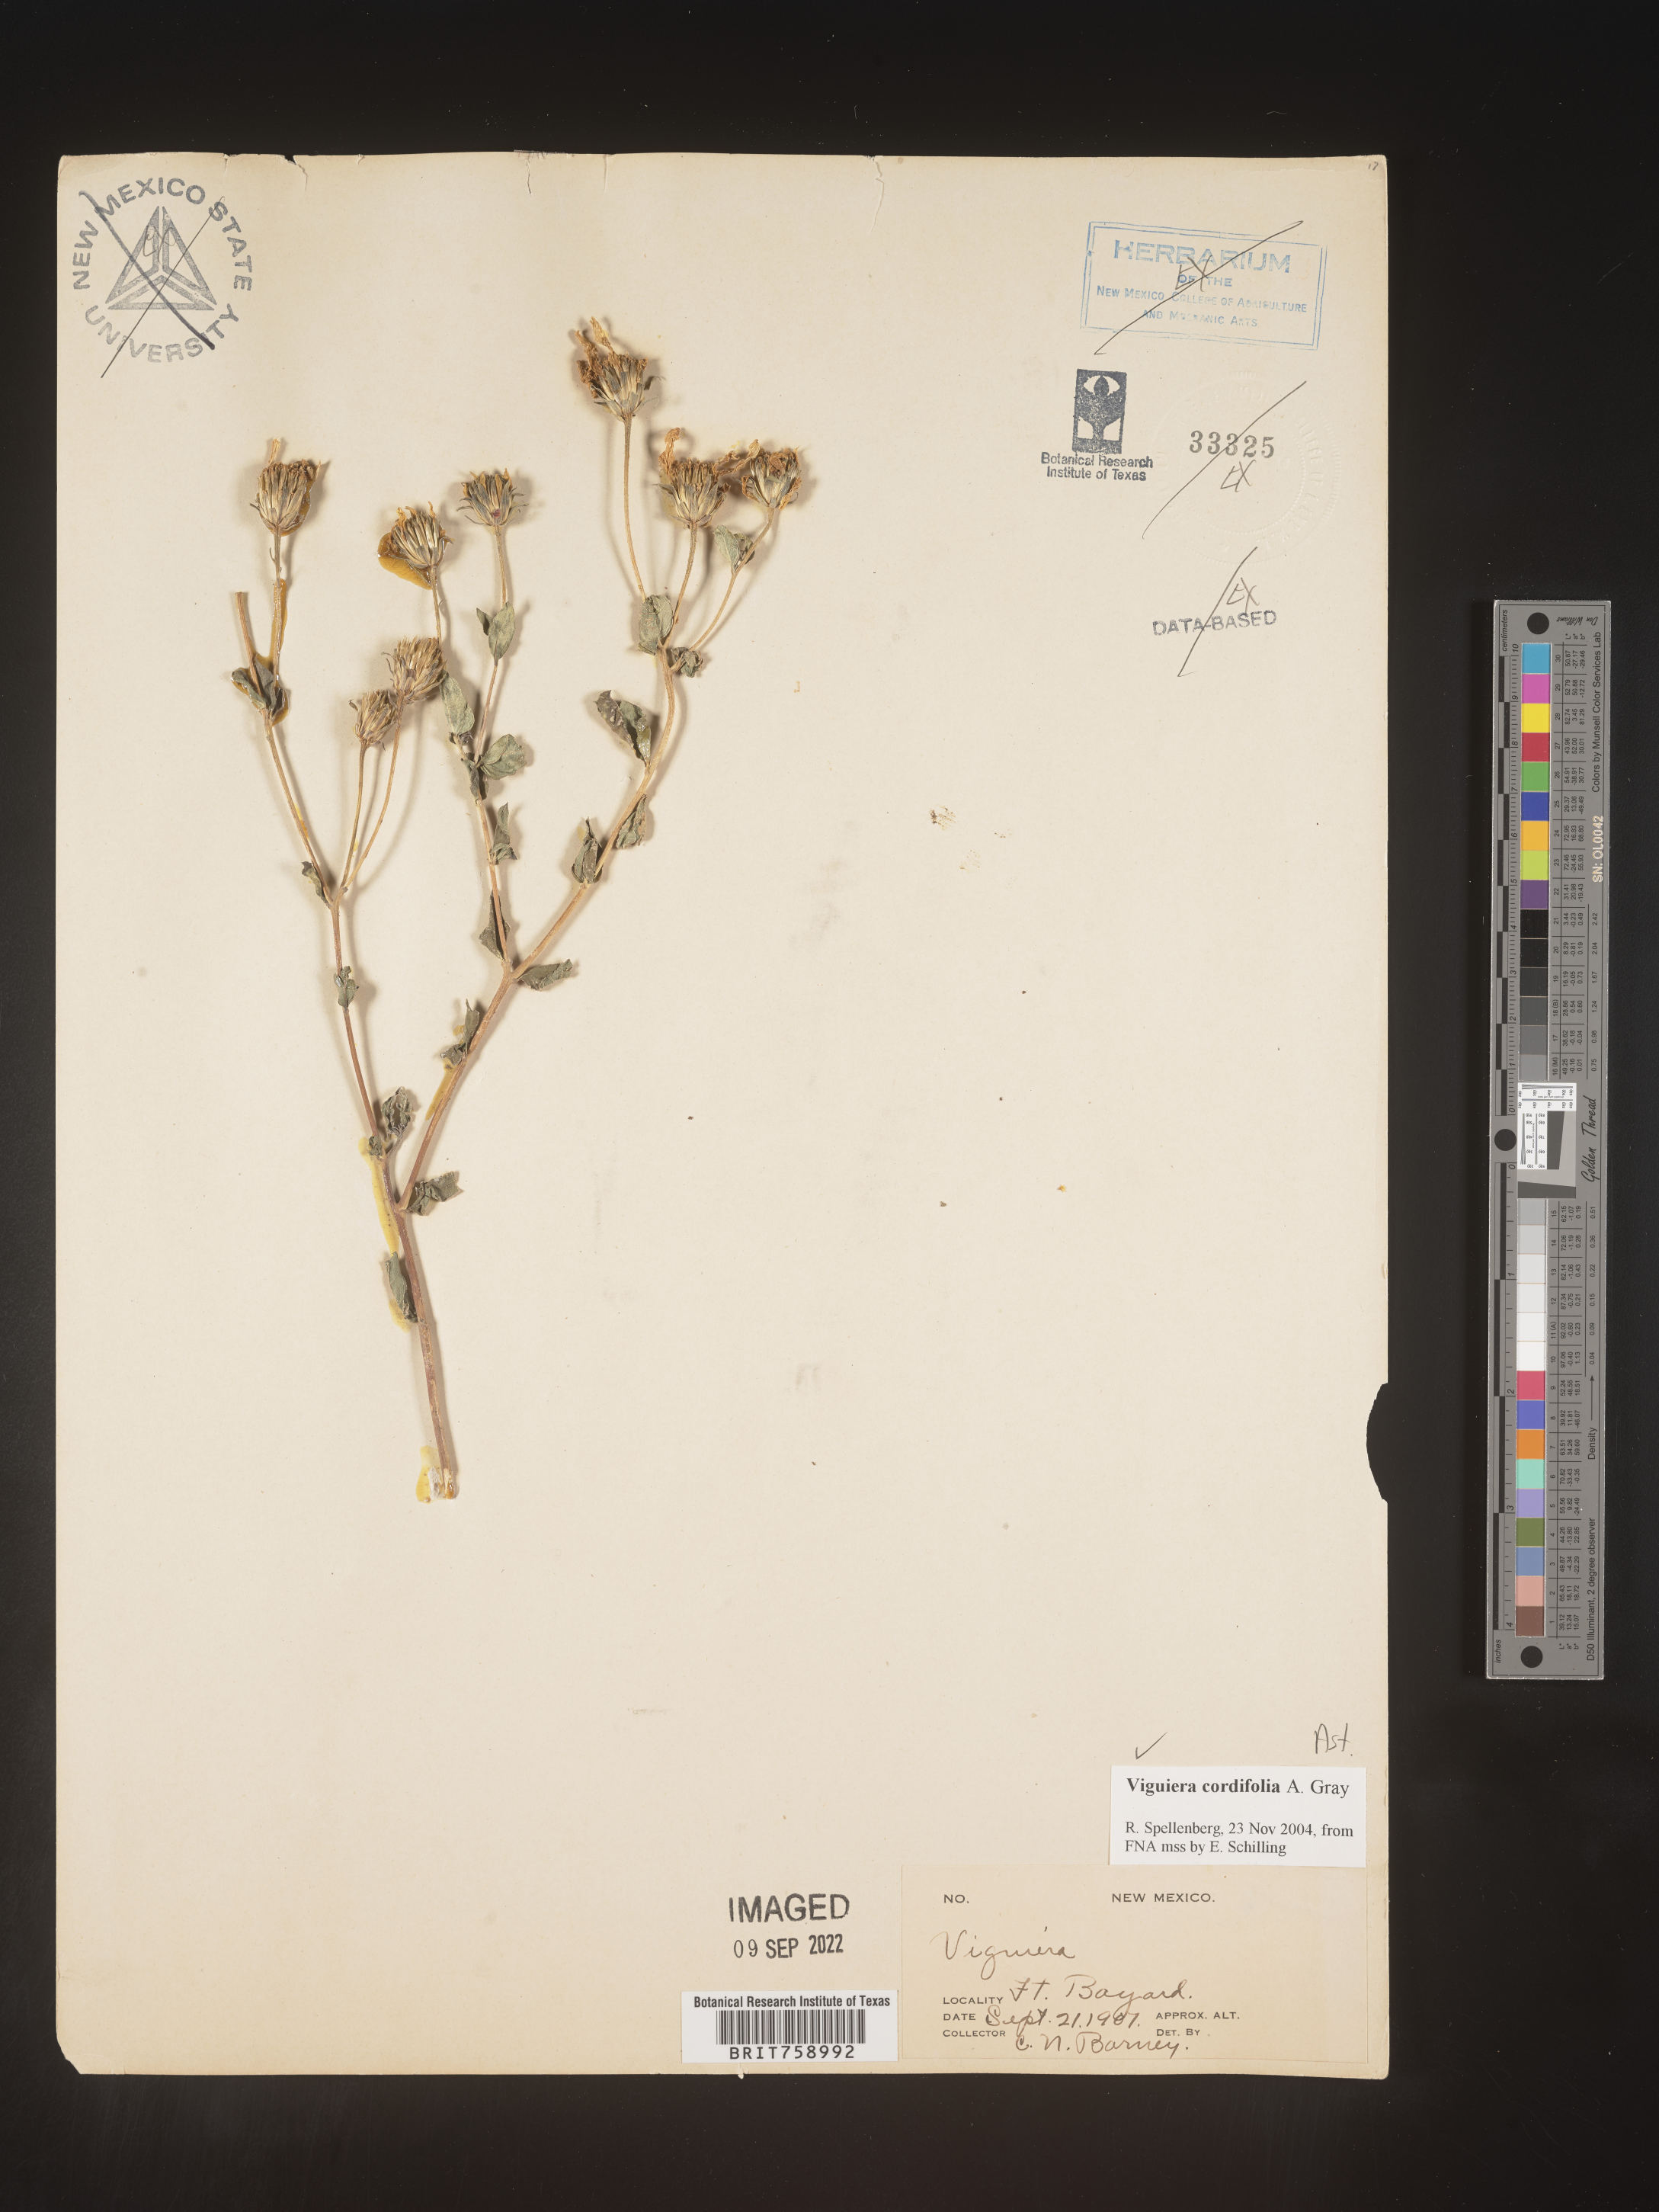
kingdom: Plantae
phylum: Tracheophyta
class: Magnoliopsida
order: Asterales
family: Asteraceae
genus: Viguiera
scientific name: Viguiera
